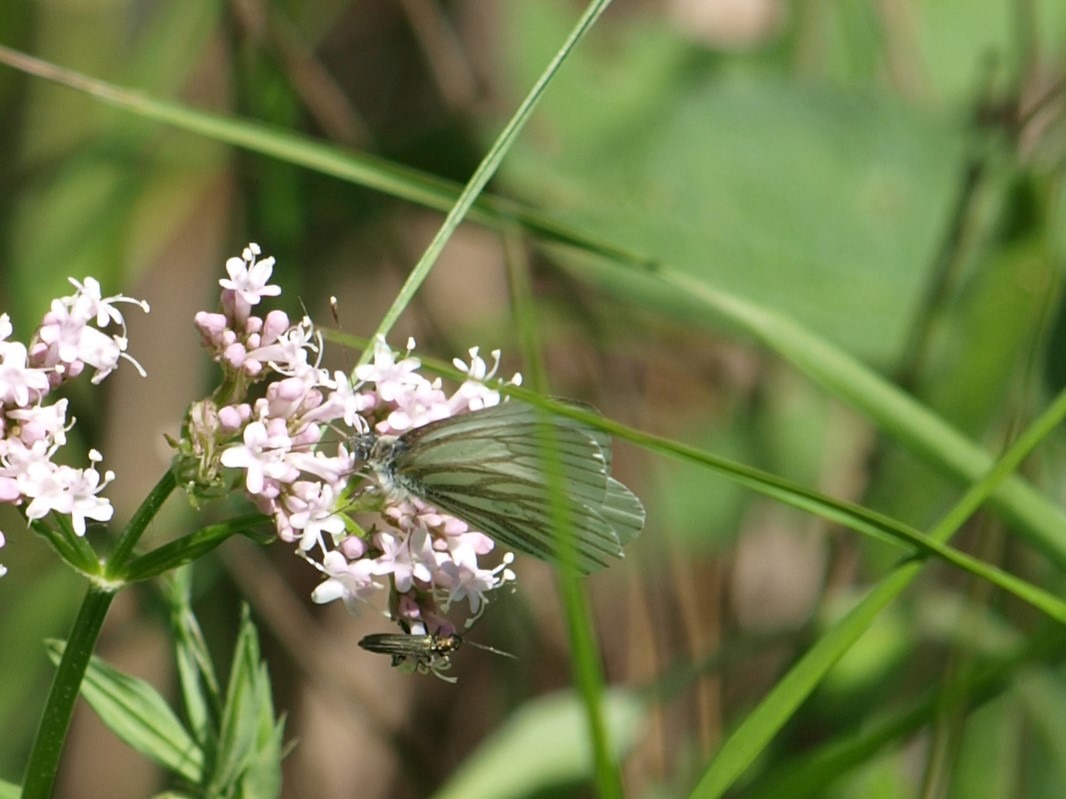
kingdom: Animalia
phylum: Arthropoda
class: Insecta
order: Lepidoptera
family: Pieridae
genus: Pieris
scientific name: Pieris napi
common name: Grønåret kålsommerfugl
